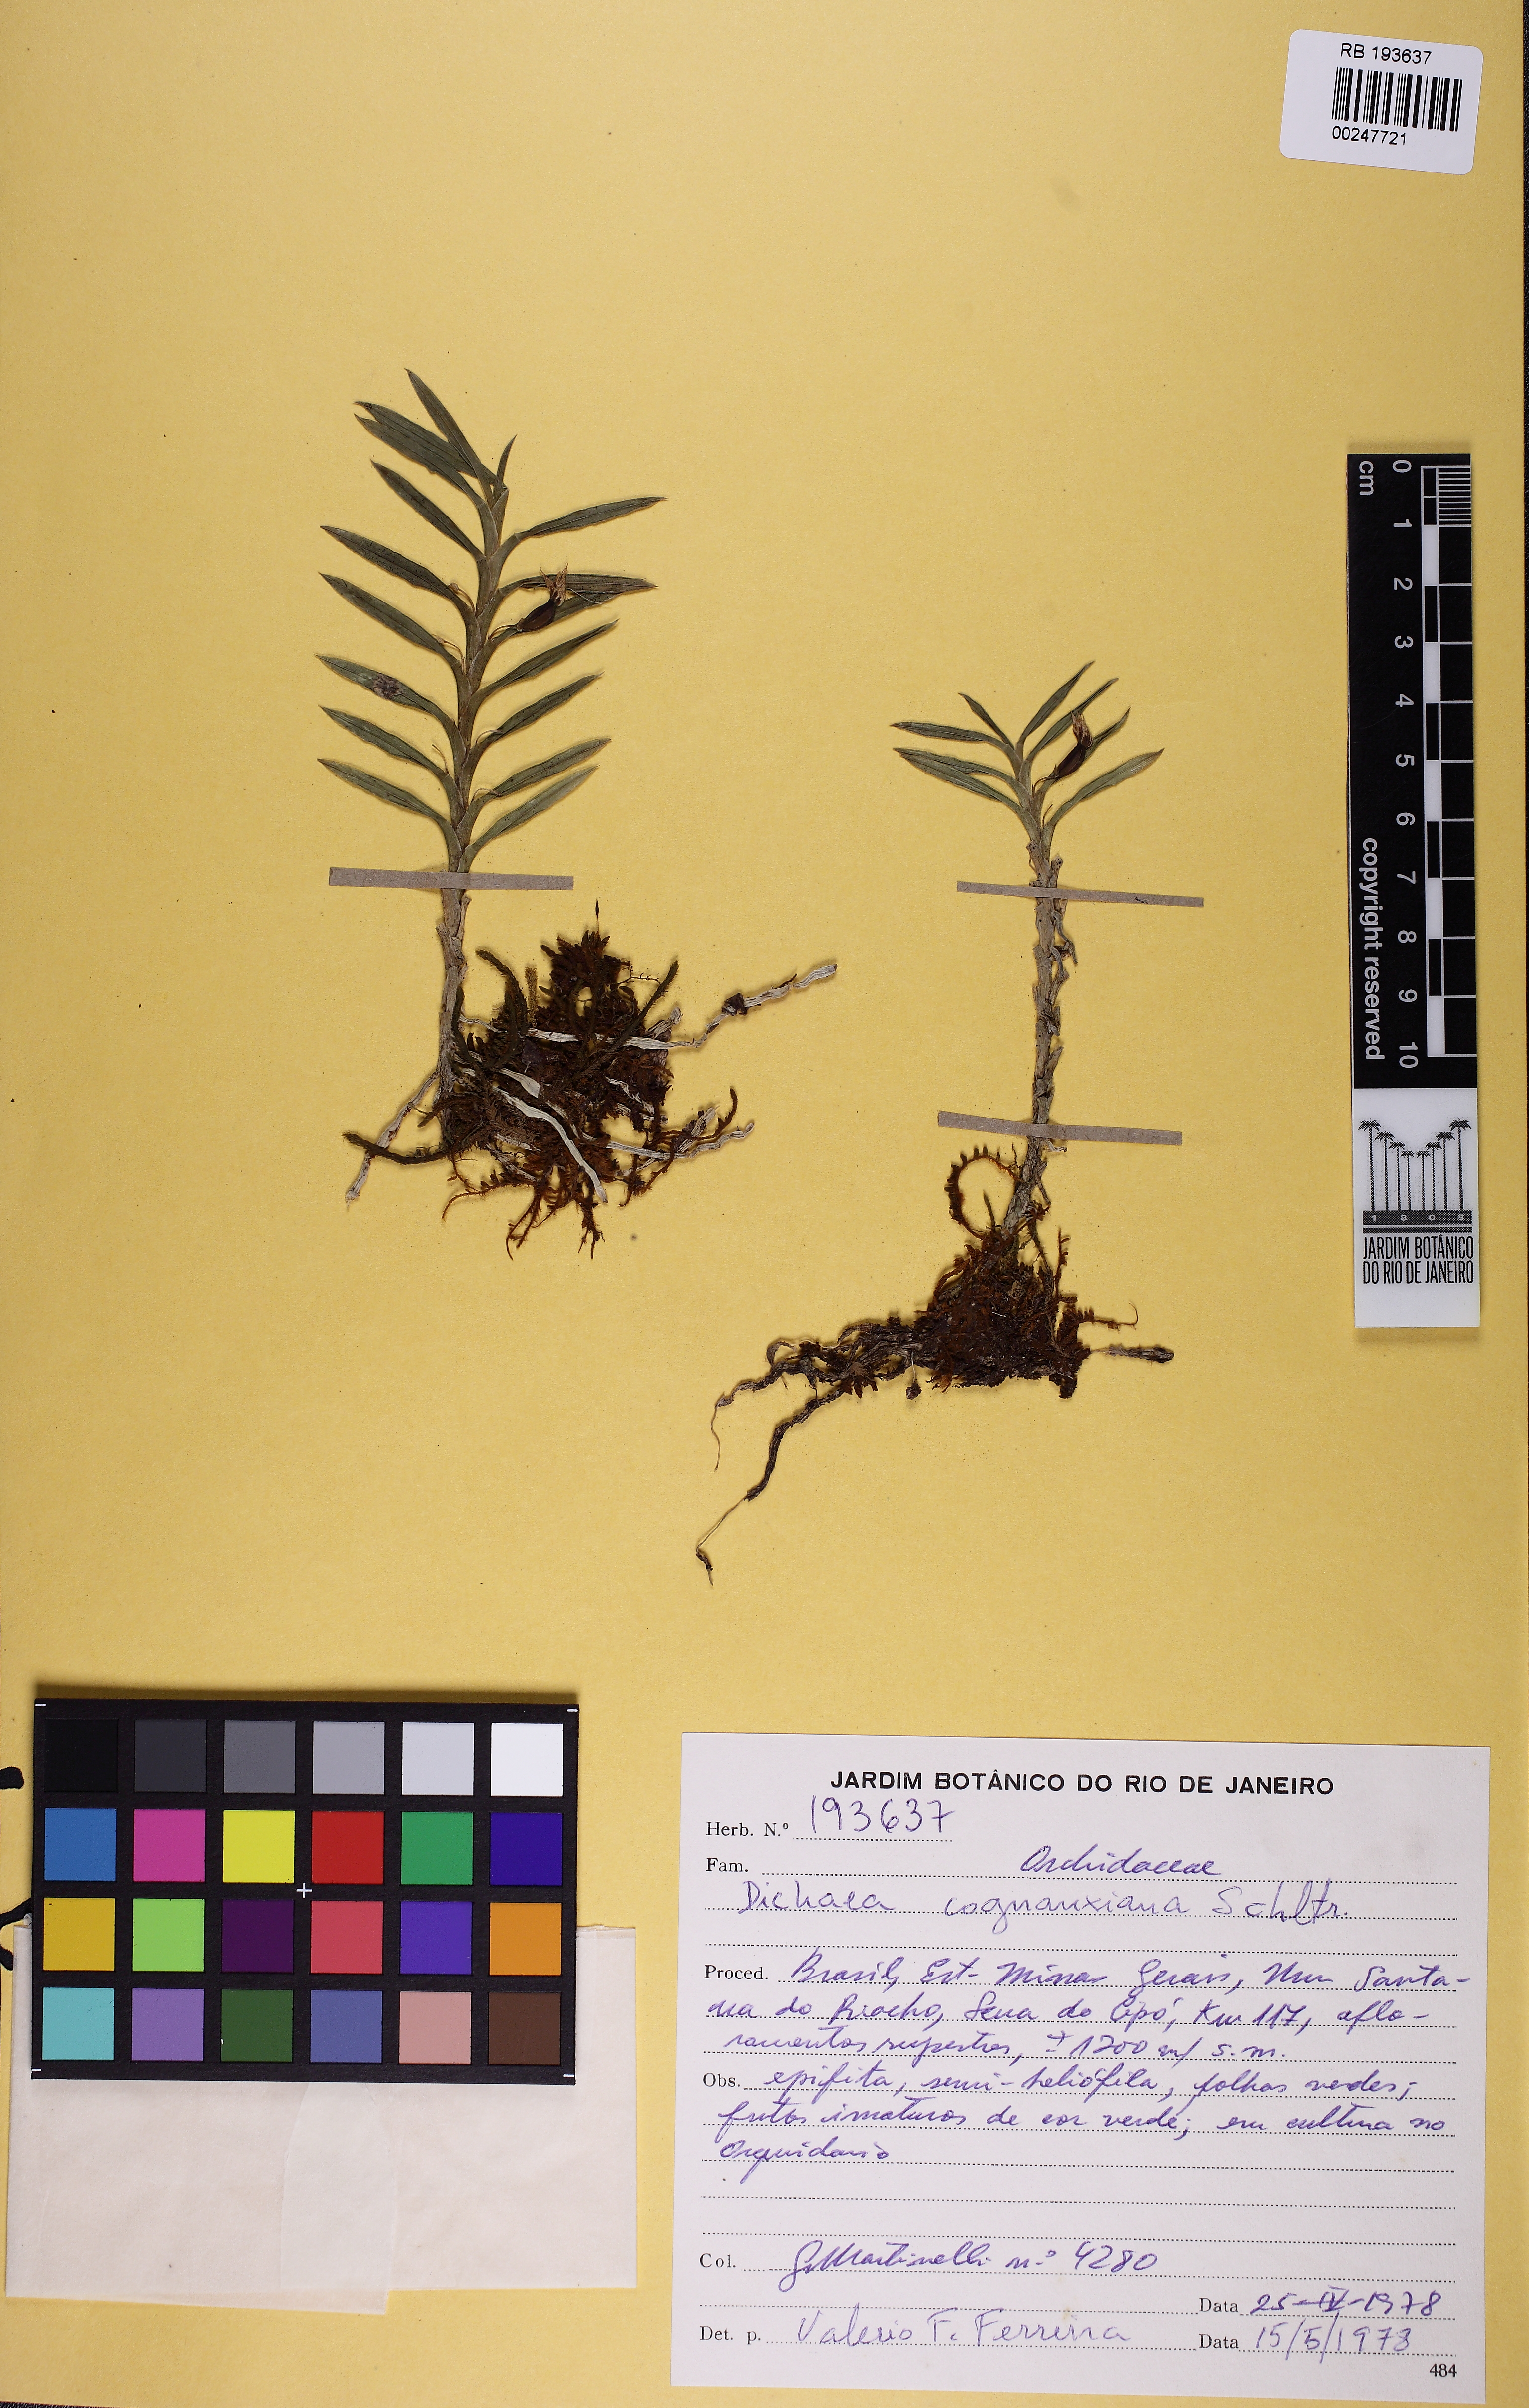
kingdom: Plantae
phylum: Tracheophyta
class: Liliopsida
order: Asparagales
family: Orchidaceae
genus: Dichaea
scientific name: Dichaea cogniauxiana
